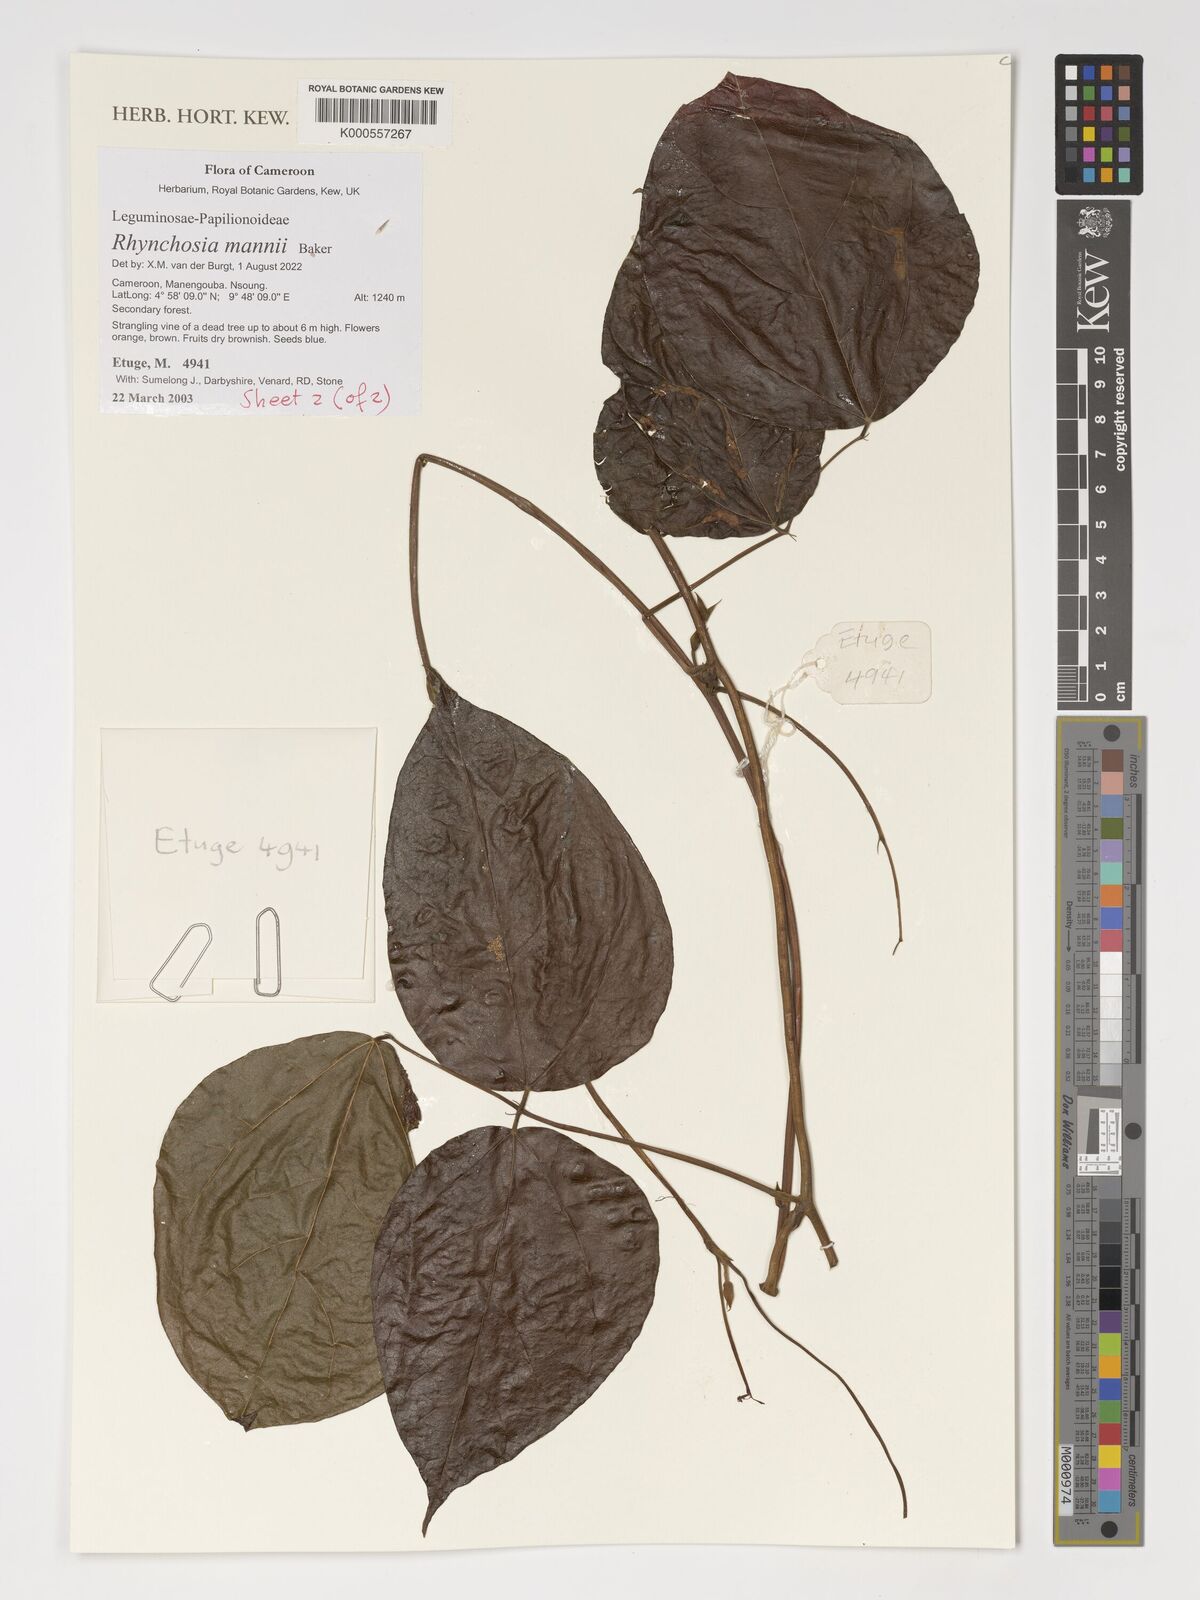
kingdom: Plantae
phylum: Tracheophyta
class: Magnoliopsida
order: Fabales
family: Fabaceae
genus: Rhynchosia
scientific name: Rhynchosia mannii
